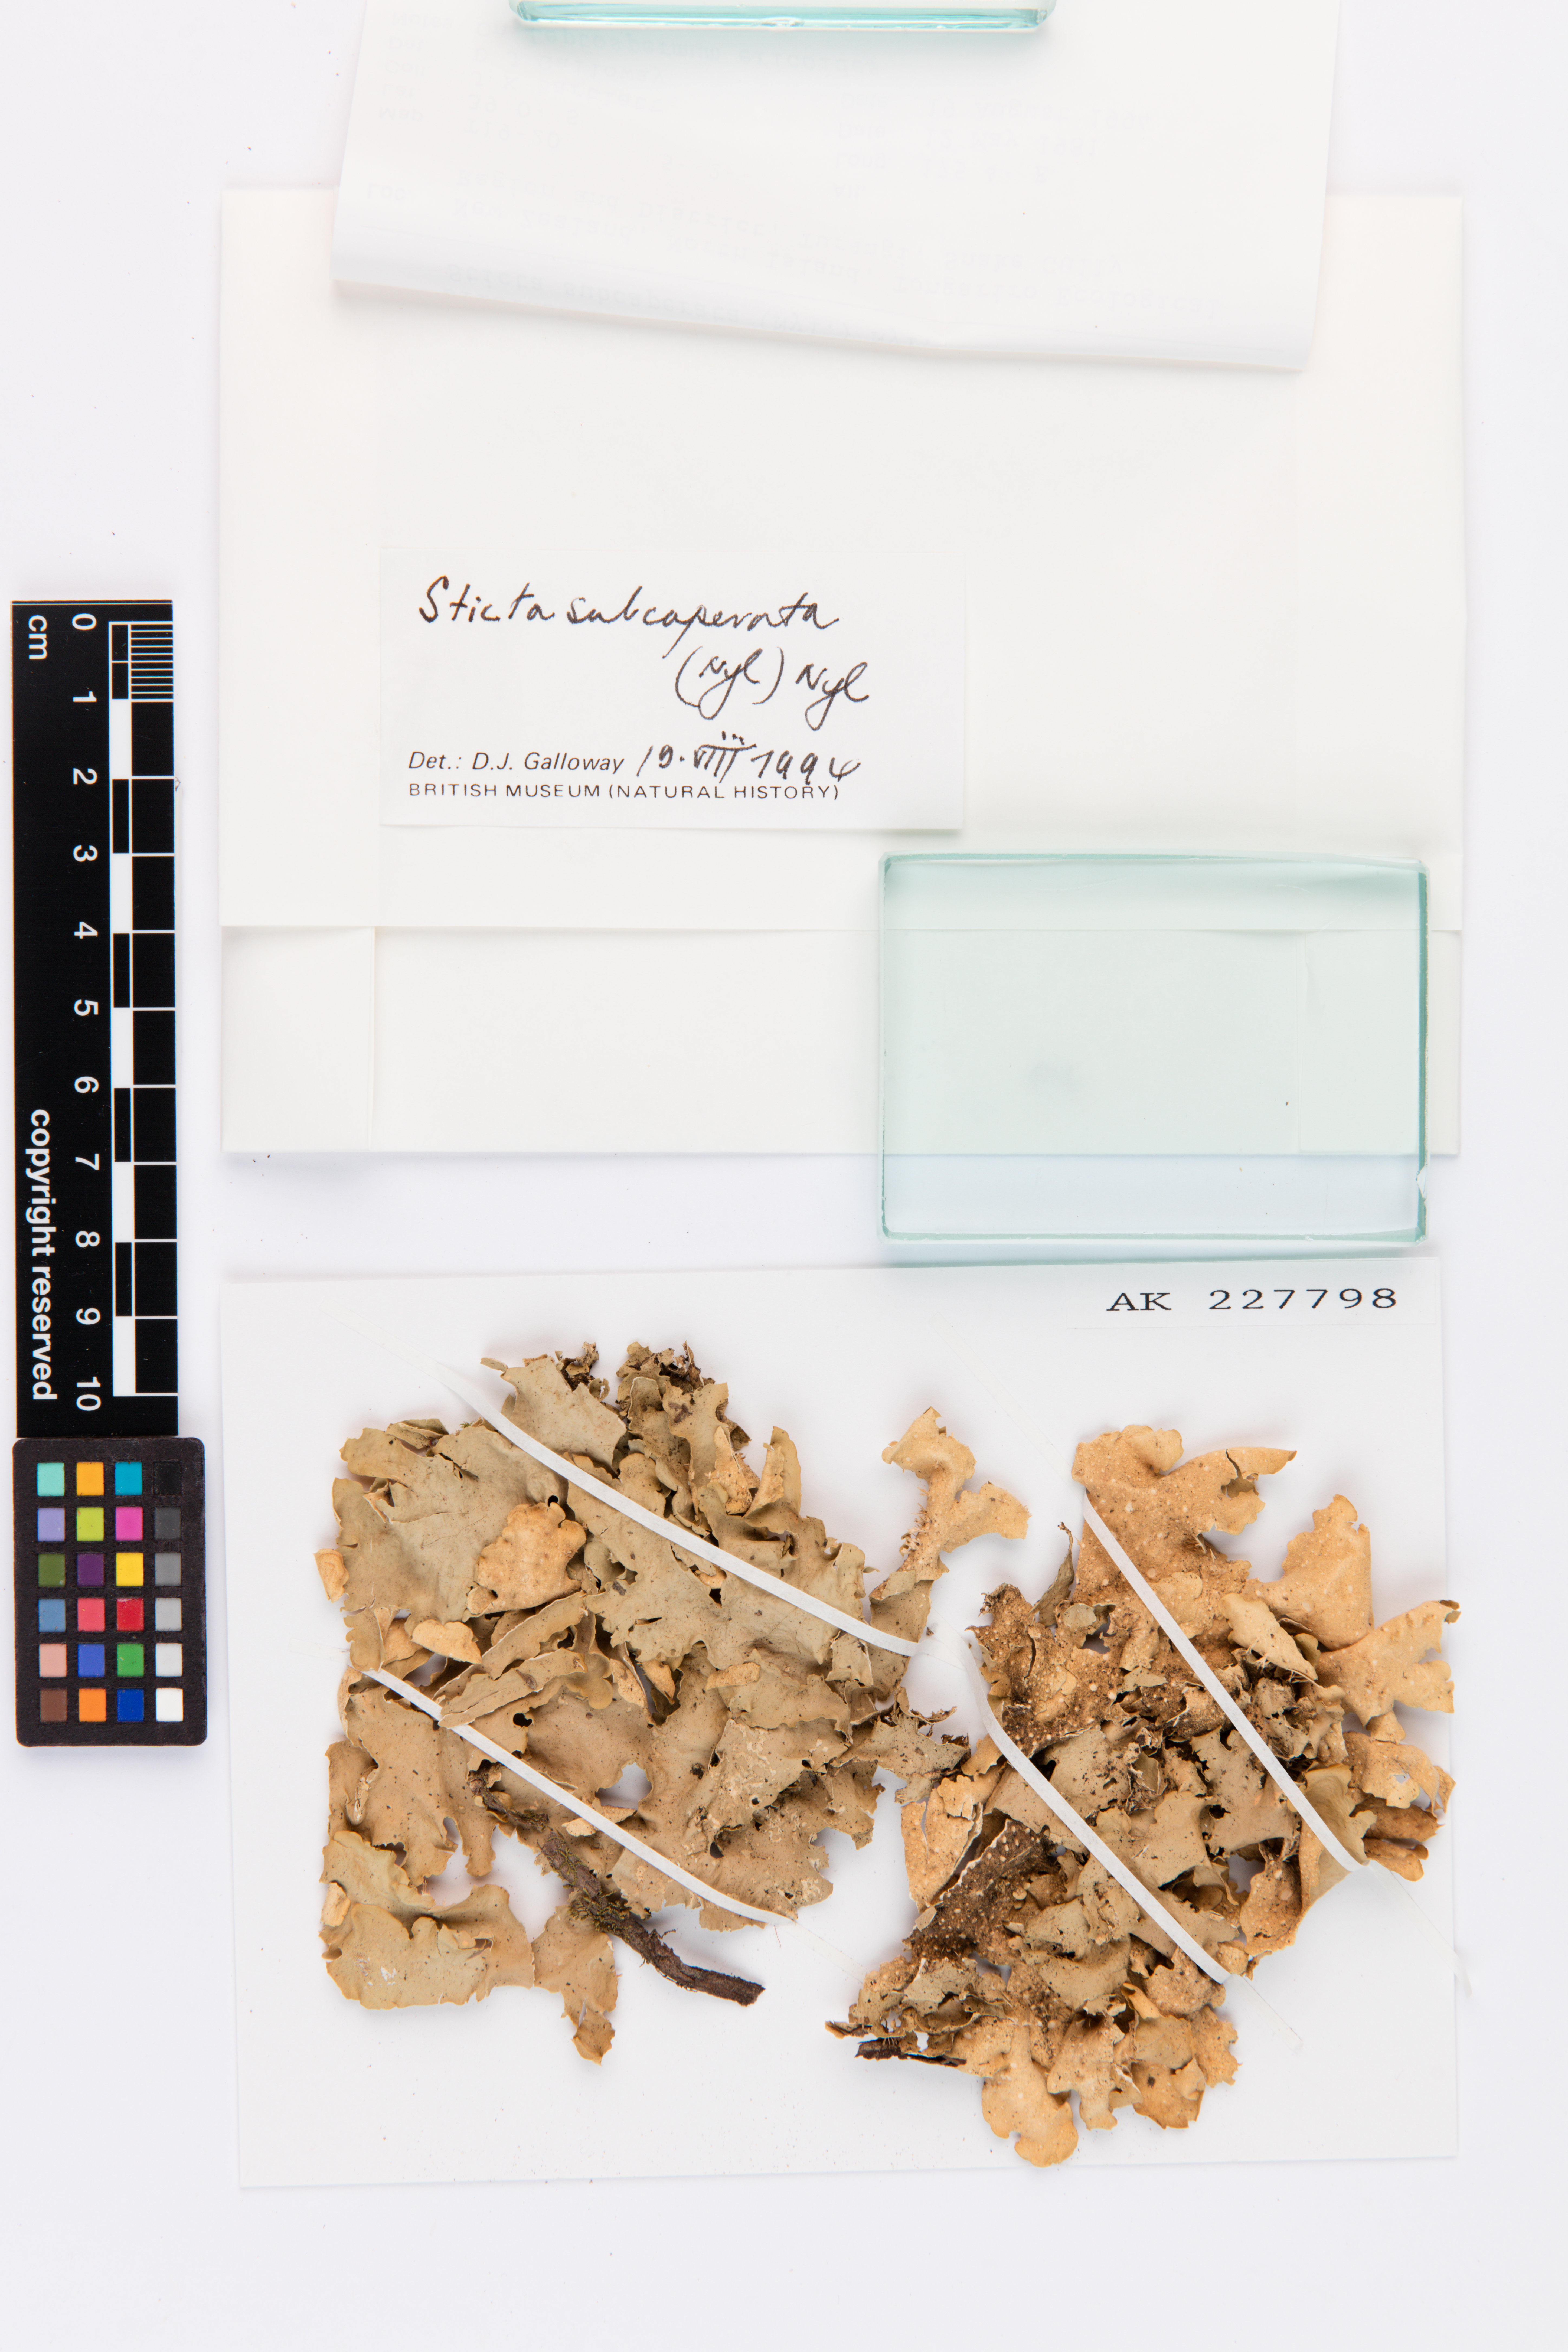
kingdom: Fungi
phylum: Ascomycota
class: Lecanoromycetes
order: Peltigerales
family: Lobariaceae
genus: Sticta
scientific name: Sticta subcaperata
